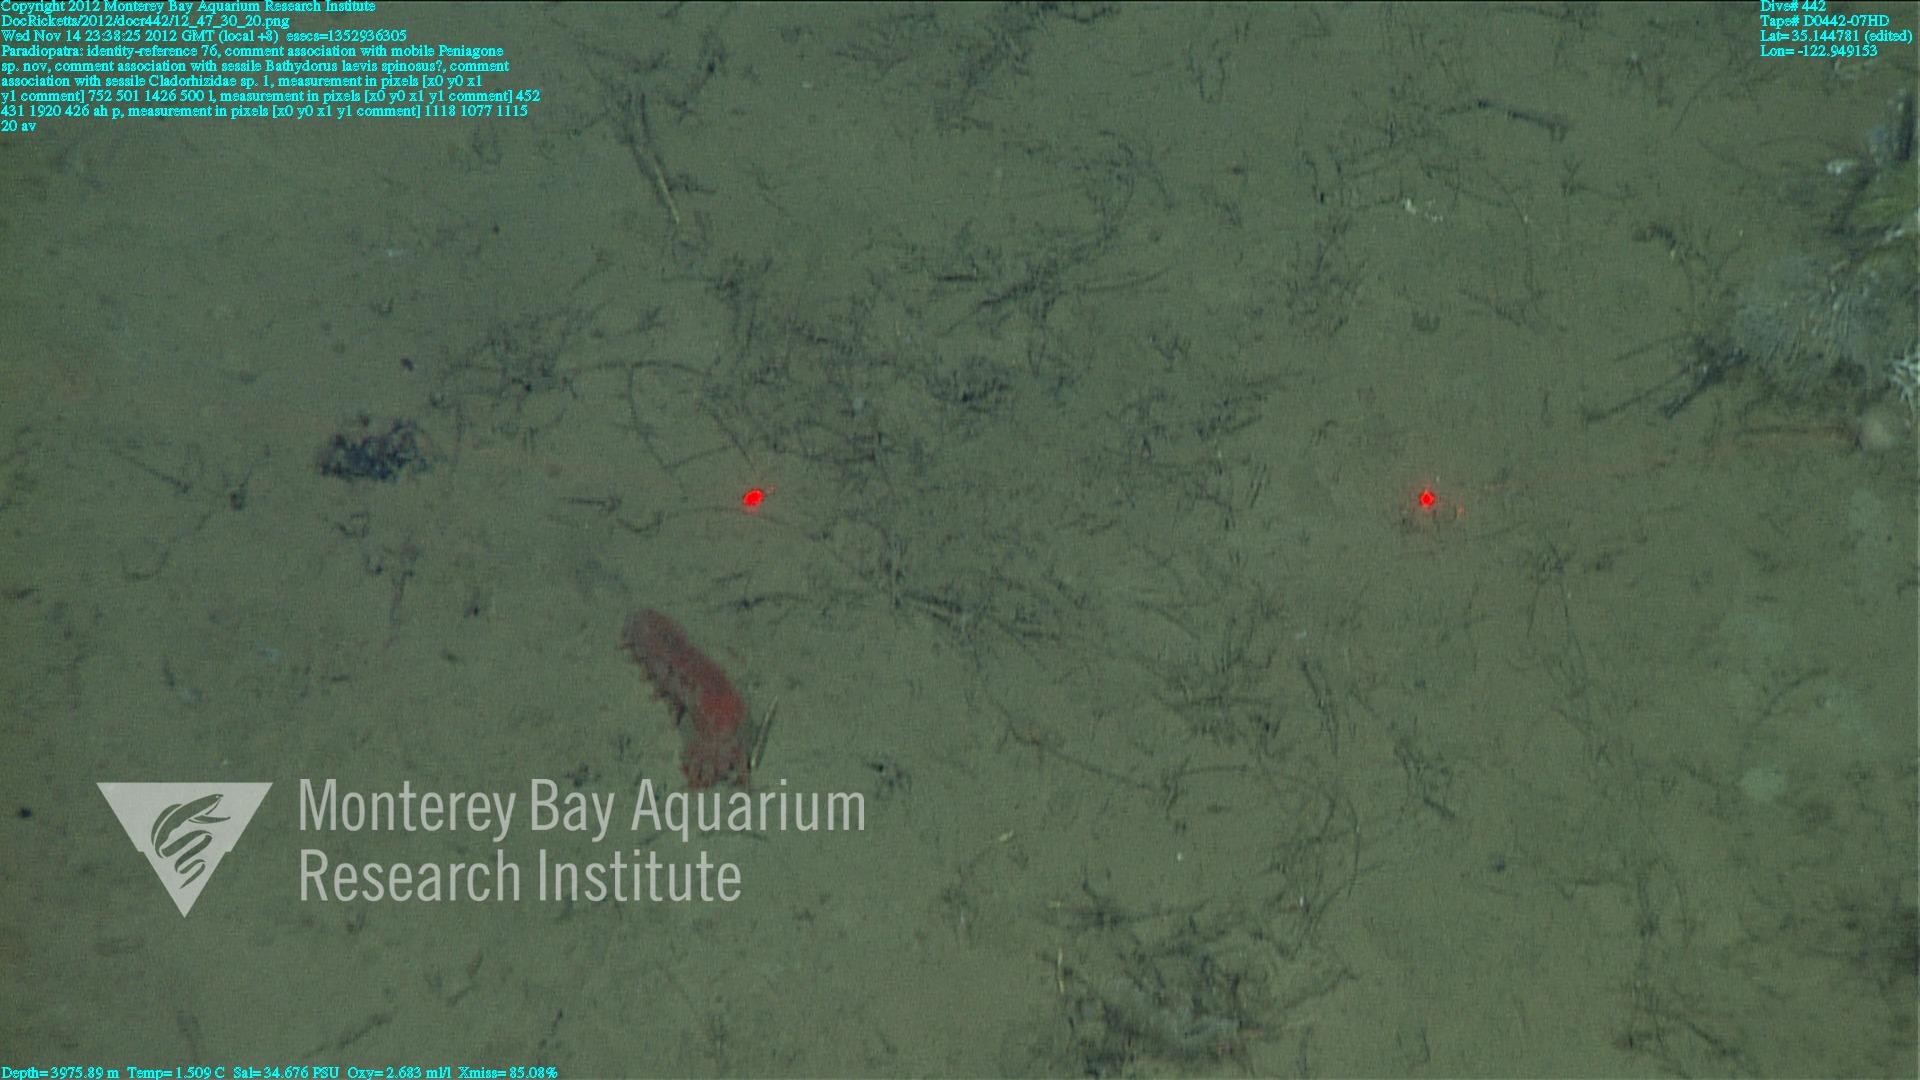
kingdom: Animalia
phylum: Porifera
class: Demospongiae
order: Poecilosclerida
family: Cladorhizidae
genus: Cladorhiza
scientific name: Cladorhiza
